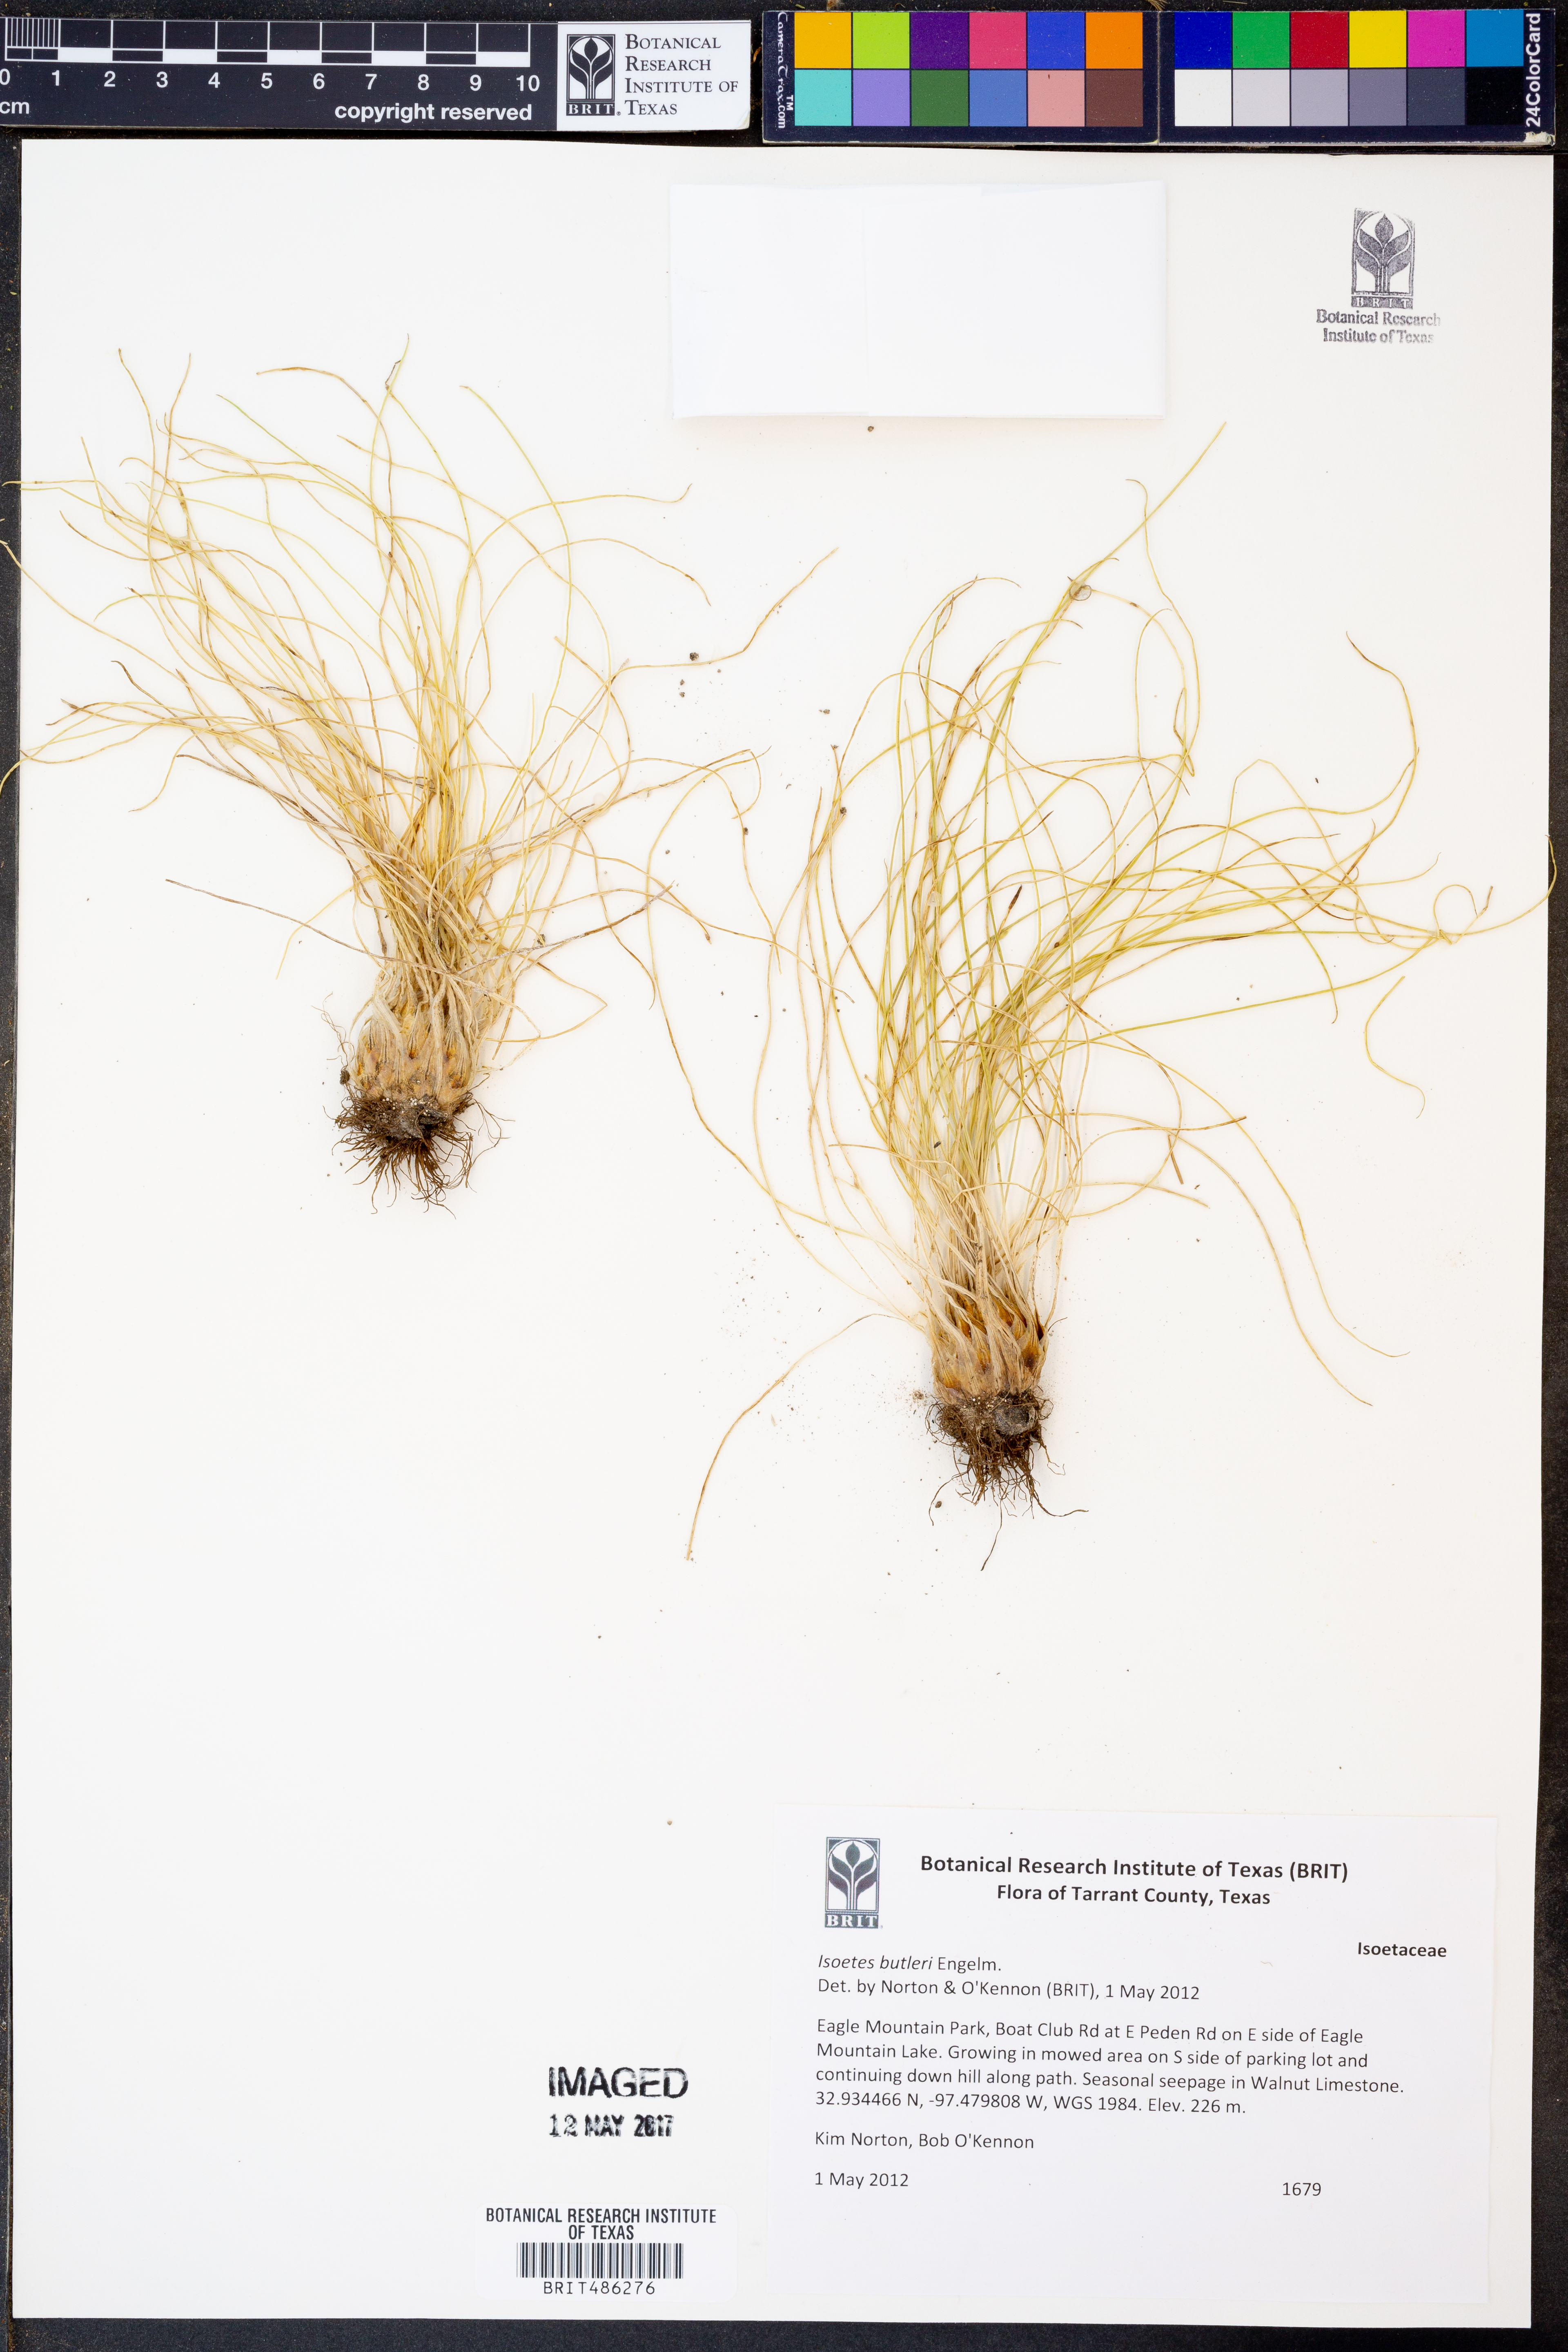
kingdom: Plantae
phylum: Tracheophyta
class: Lycopodiopsida
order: Isoetales
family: Isoetaceae
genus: Isoetes
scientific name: Isoetes butleri
